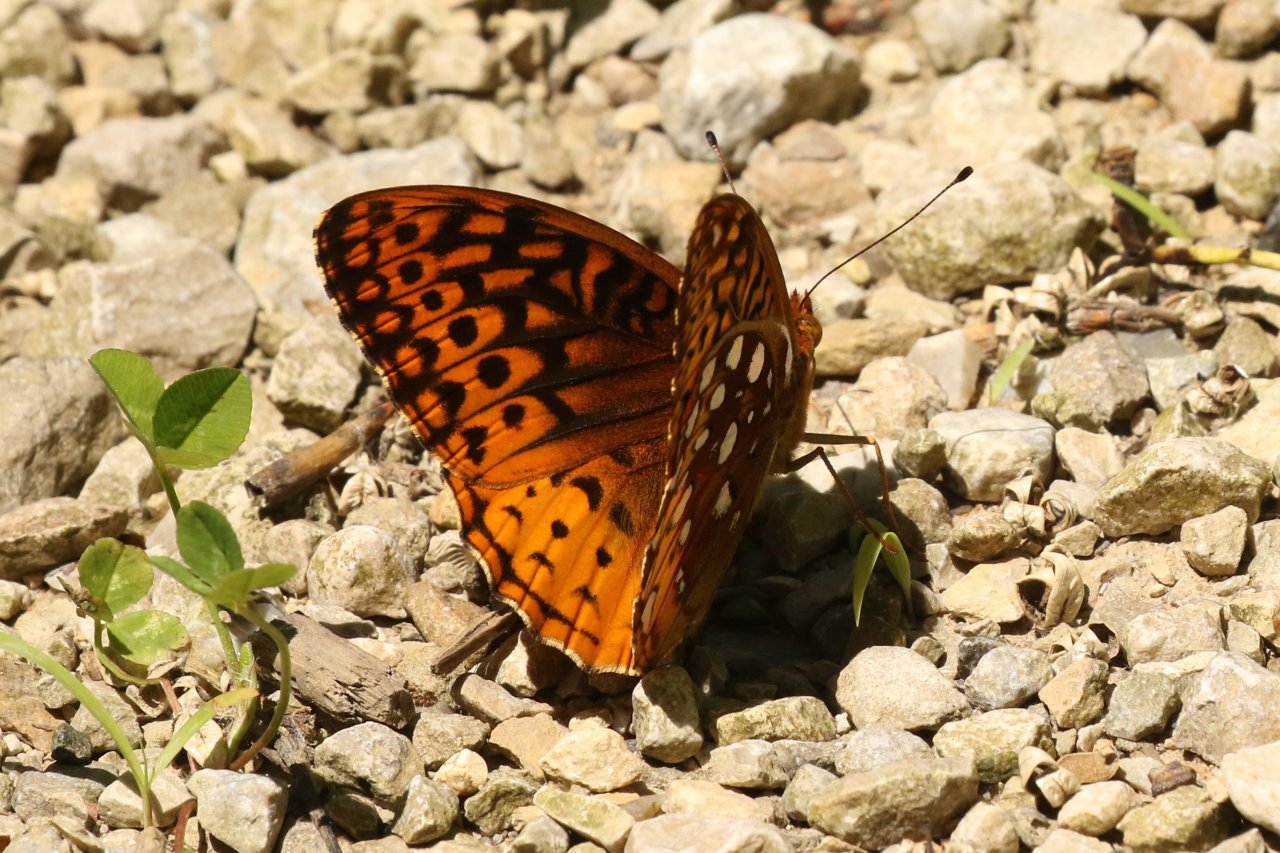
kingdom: Animalia
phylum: Arthropoda
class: Insecta
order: Lepidoptera
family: Nymphalidae
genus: Speyeria
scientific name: Speyeria cybele
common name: Great Spangled Fritillary
